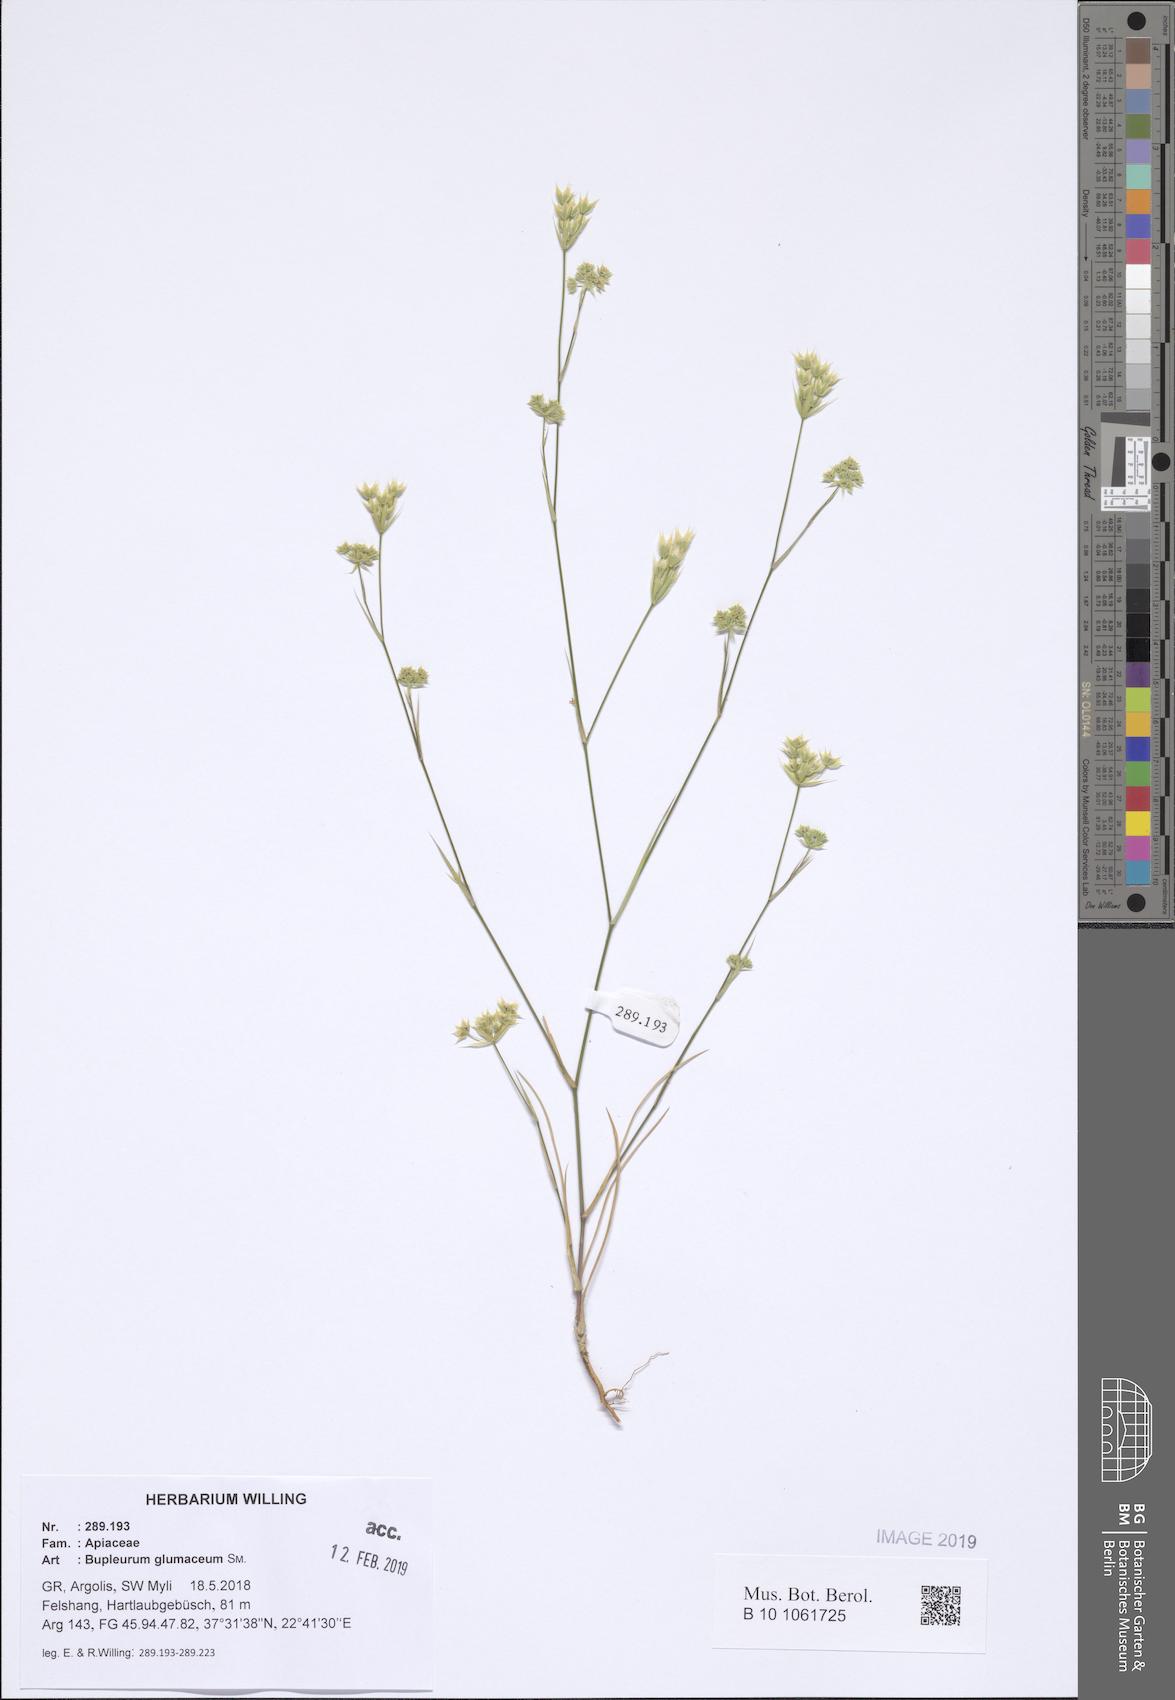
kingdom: Plantae
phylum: Tracheophyta
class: Magnoliopsida
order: Apiales
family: Apiaceae
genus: Bupleurum
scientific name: Bupleurum glumaceum
